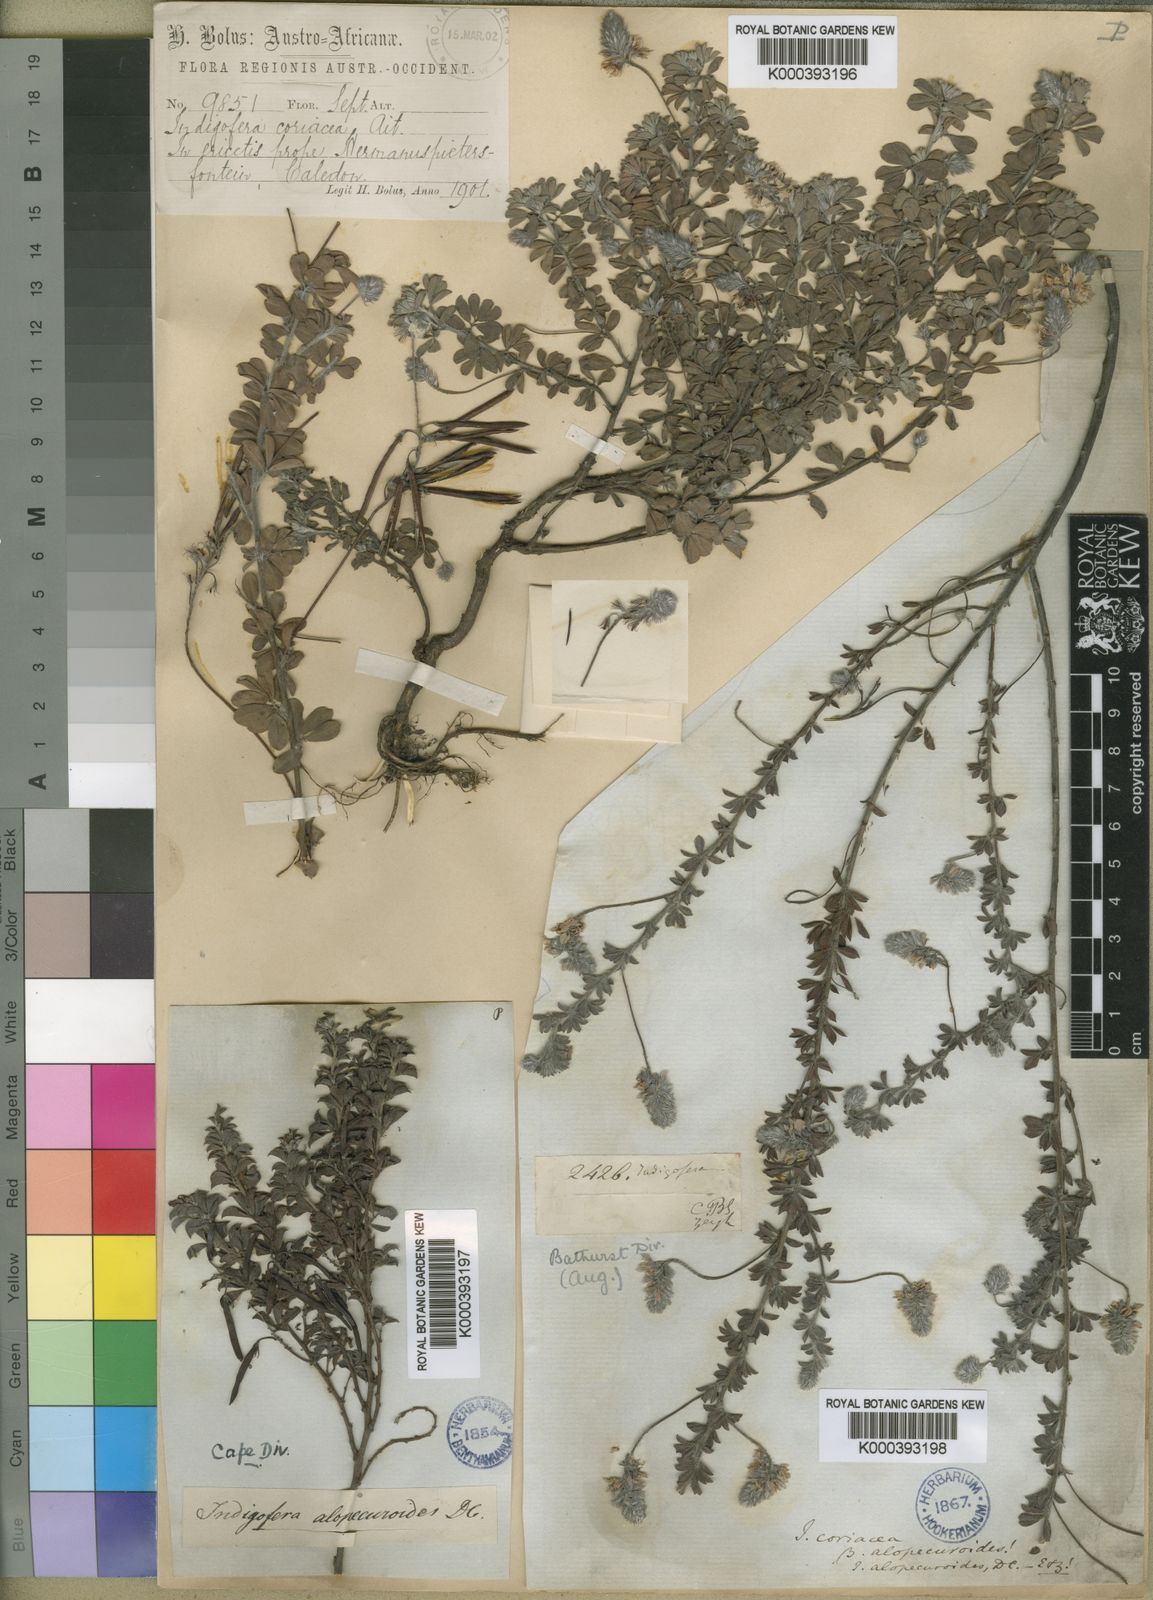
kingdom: Plantae
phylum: Tracheophyta
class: Magnoliopsida
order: Fabales
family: Fabaceae
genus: Indigofera
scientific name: Indigofera alopecuroides
